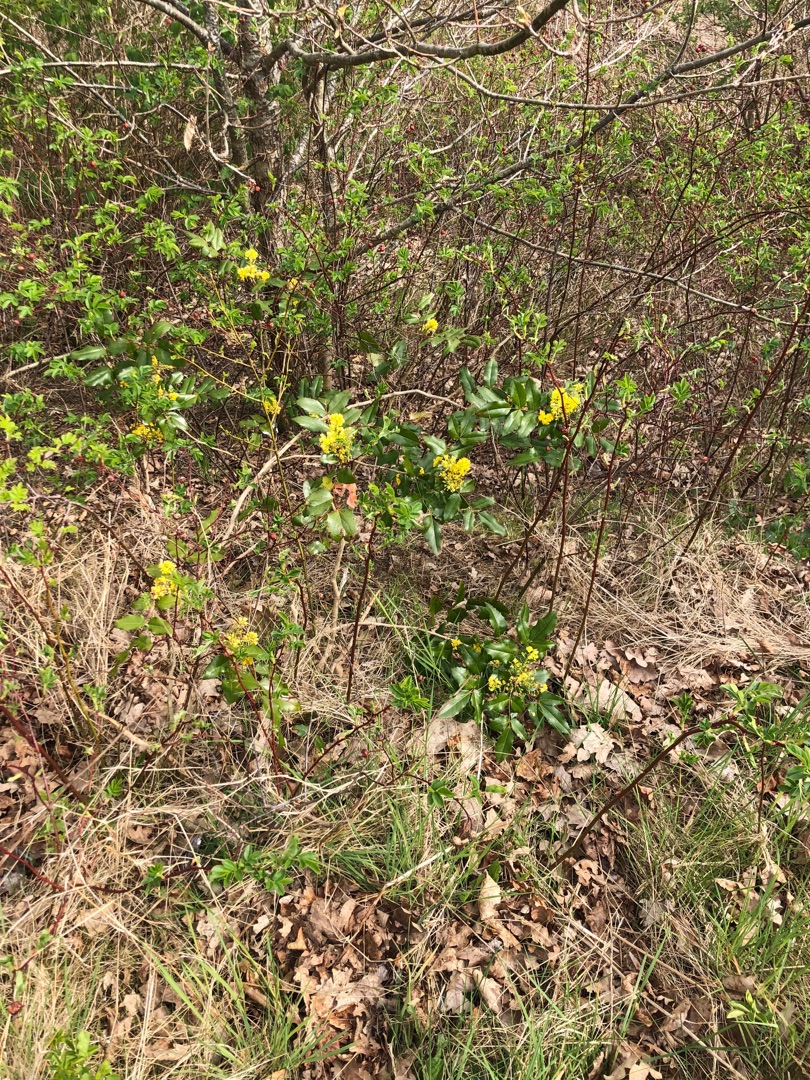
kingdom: Plantae
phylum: Tracheophyta
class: Magnoliopsida
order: Ranunculales
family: Berberidaceae
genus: Mahonia
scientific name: Mahonia aquifolium
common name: Almindelig mahonie
